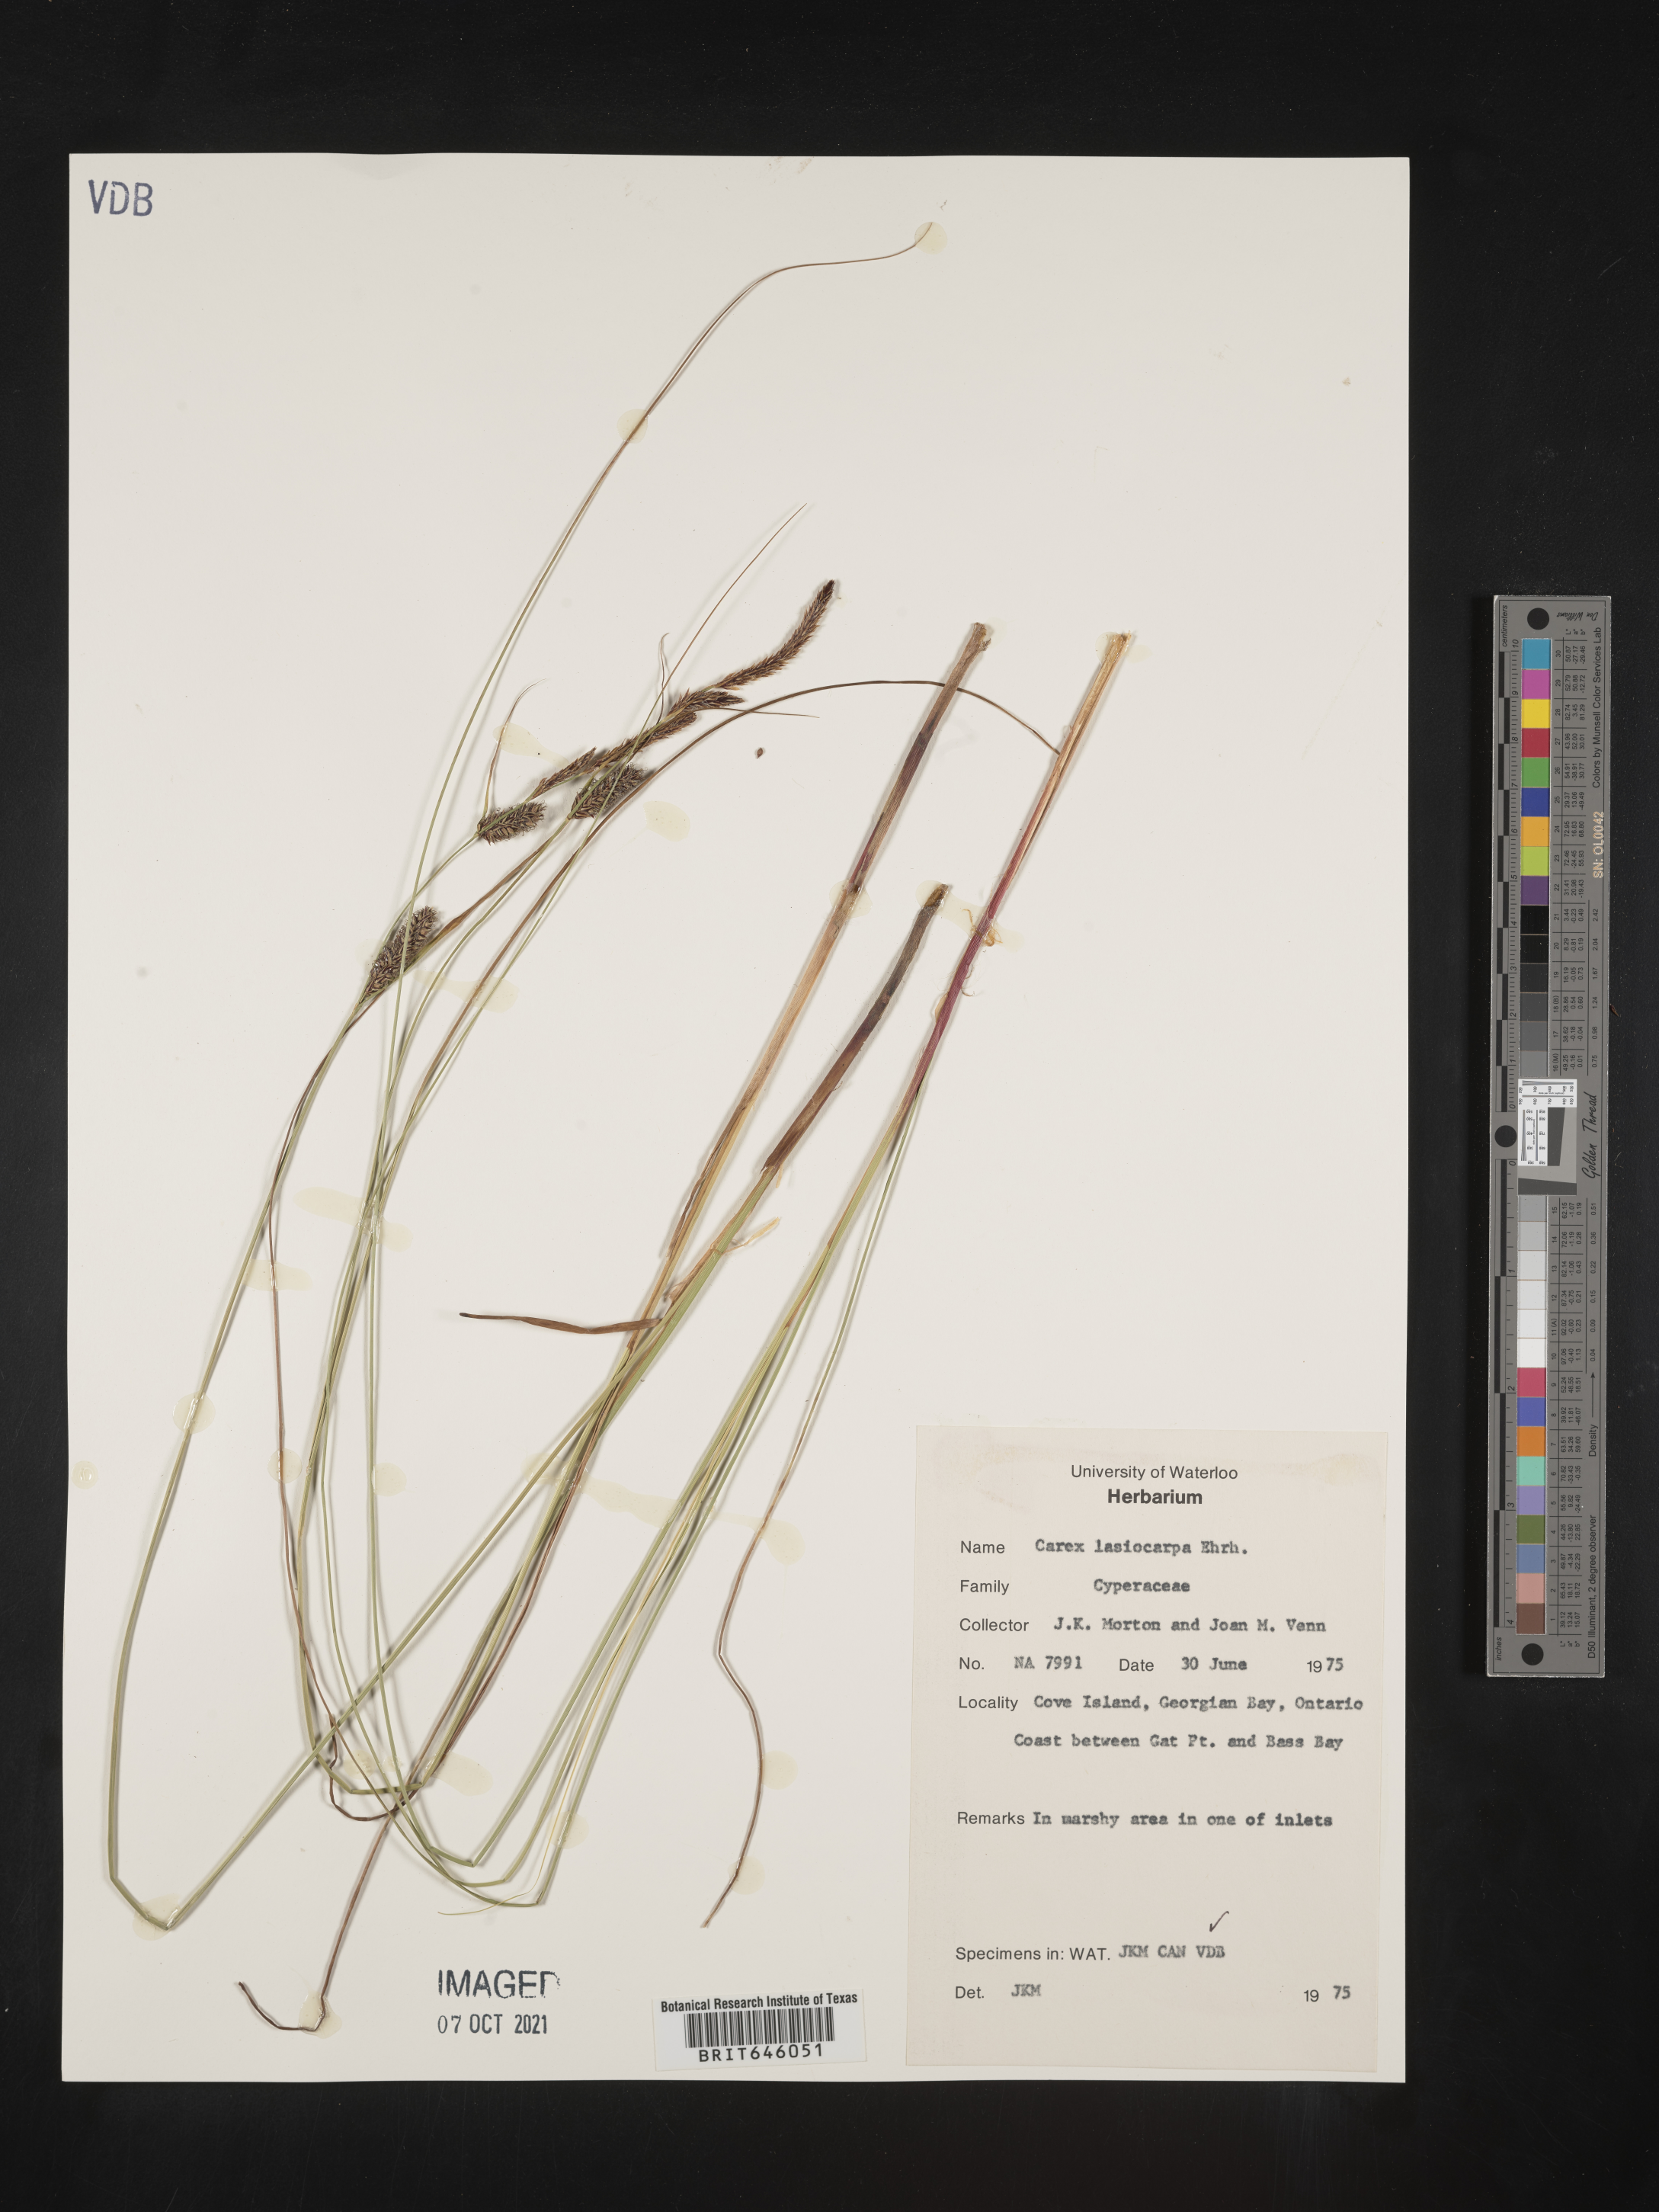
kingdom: Plantae
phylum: Tracheophyta
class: Liliopsida
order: Poales
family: Cyperaceae
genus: Carex
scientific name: Carex lasiocarpa
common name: Slender sedge
